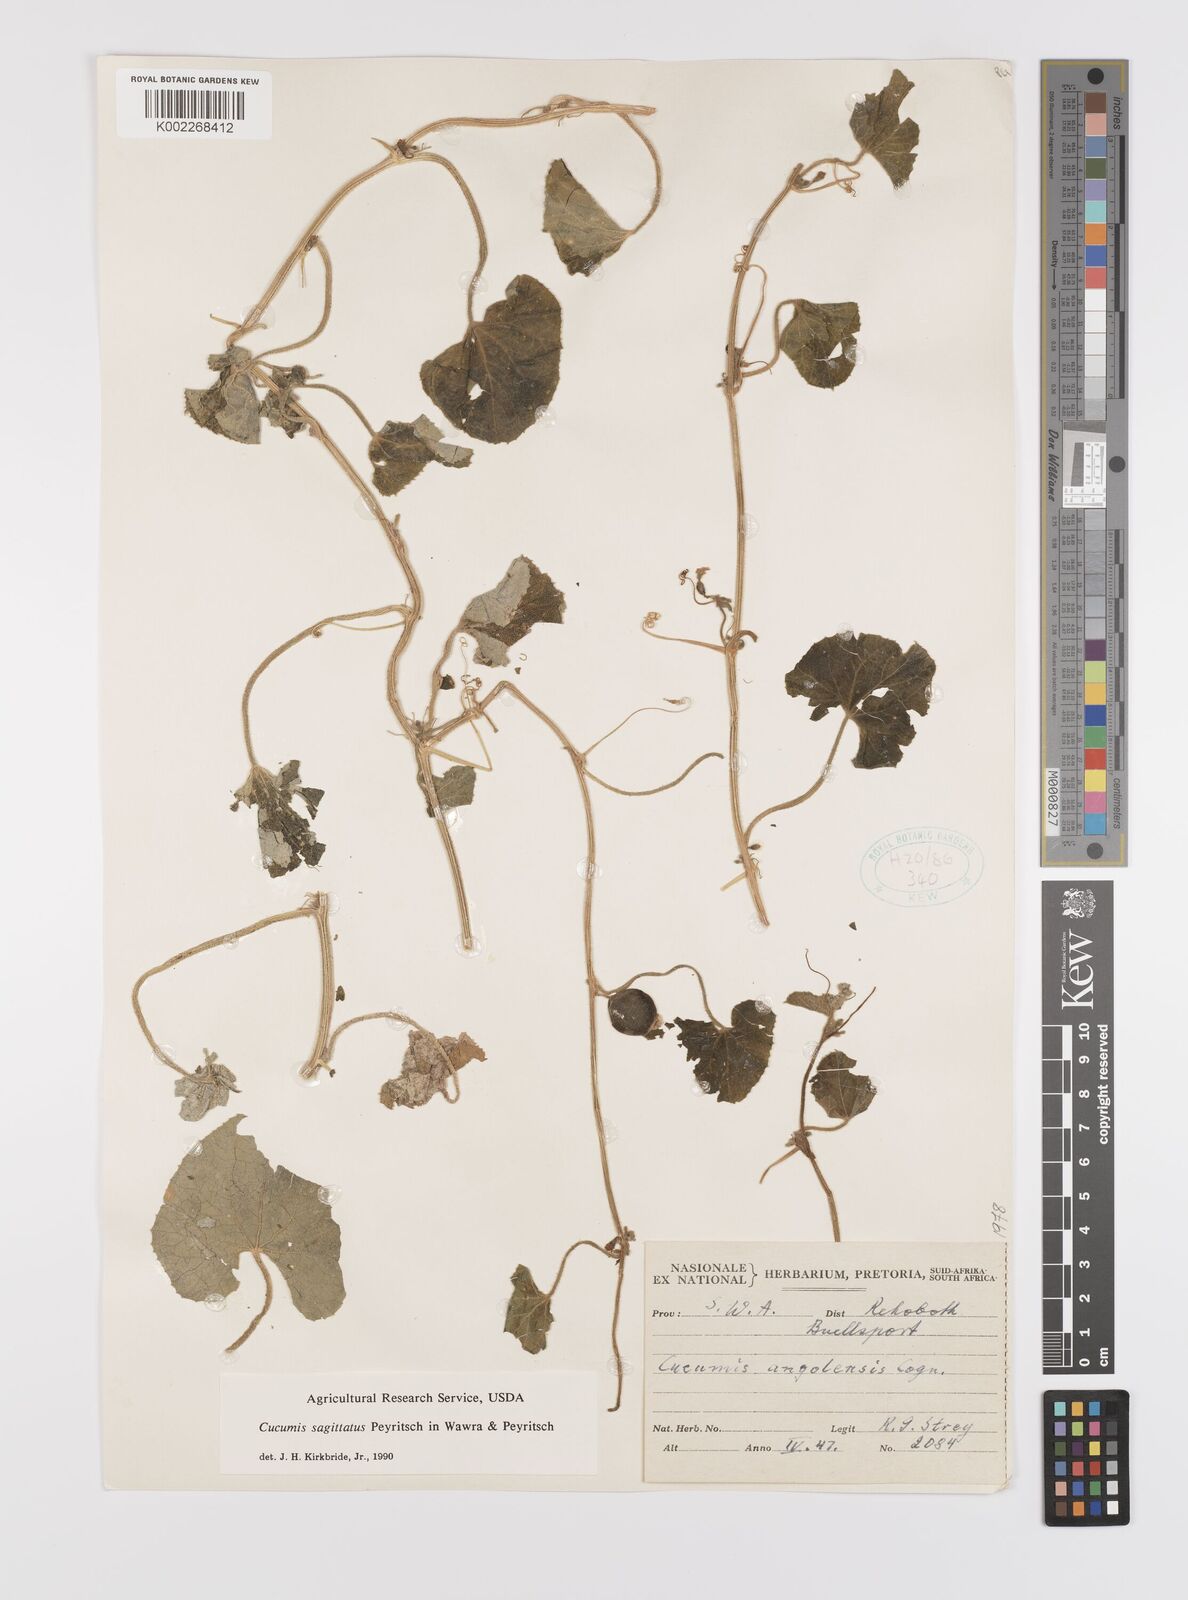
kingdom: Plantae
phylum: Tracheophyta
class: Magnoliopsida
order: Cucurbitales
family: Cucurbitaceae
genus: Cucumis
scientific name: Cucumis sagittatus
